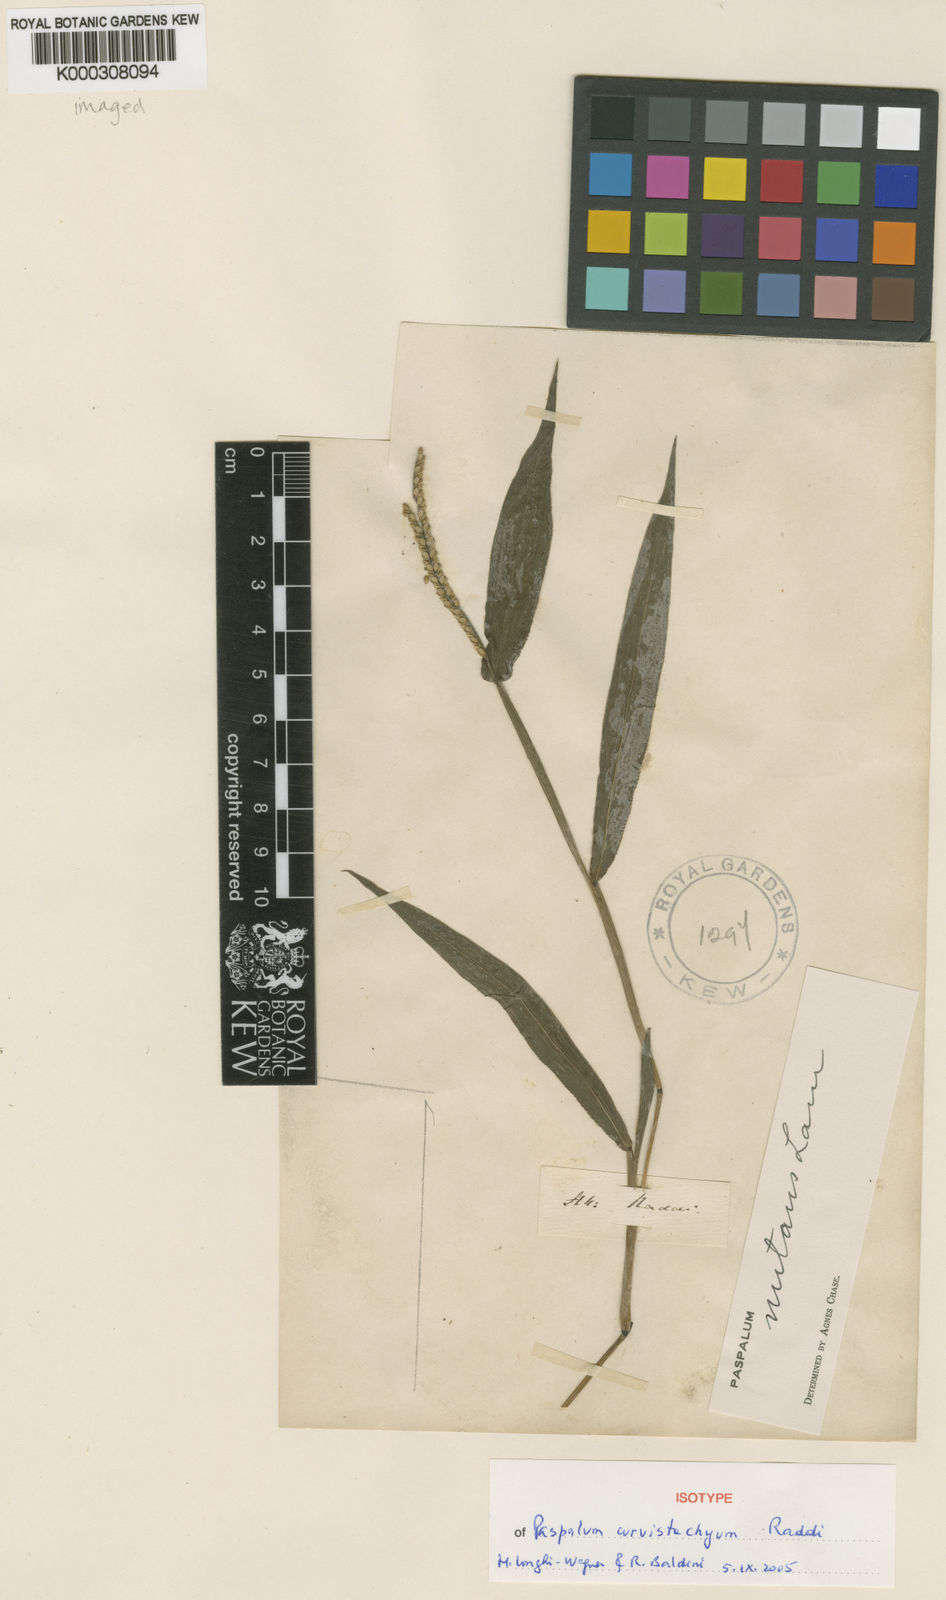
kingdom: Plantae
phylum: Tracheophyta
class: Liliopsida
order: Poales
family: Poaceae
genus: Paspalum
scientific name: Paspalum acuminatum
